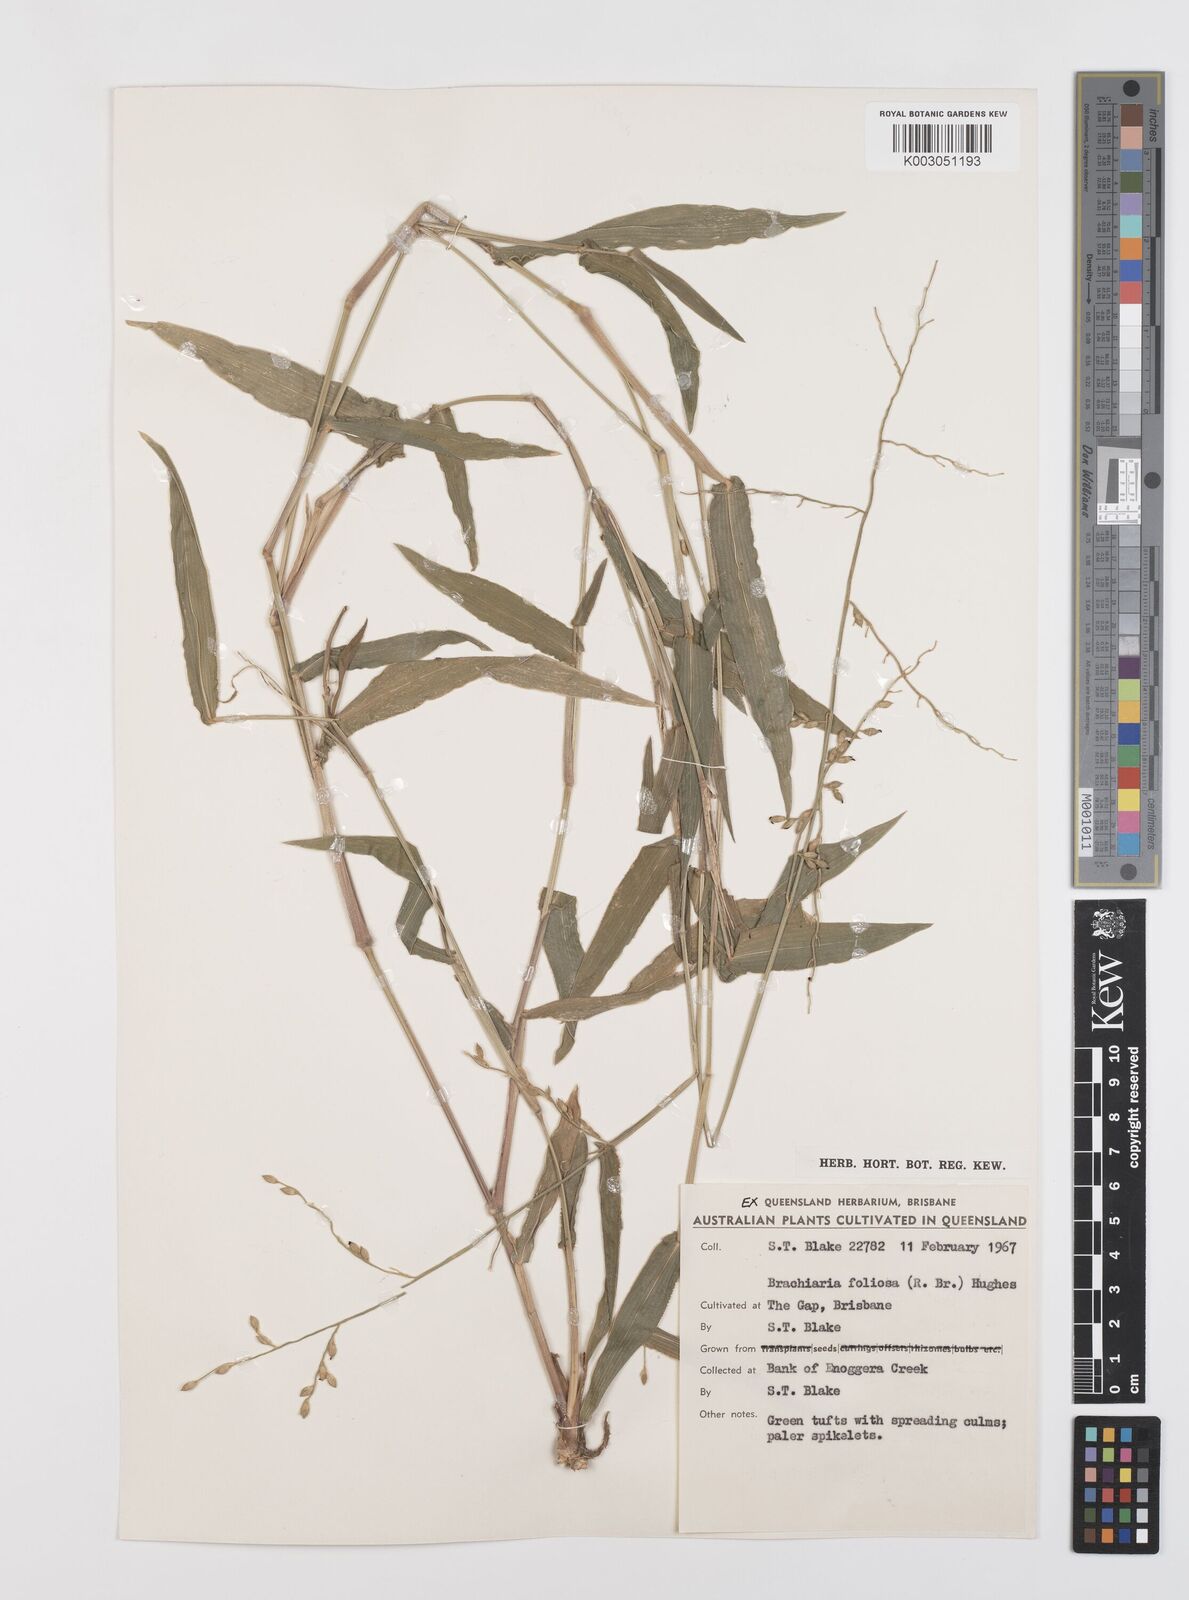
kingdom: Plantae
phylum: Tracheophyta
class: Liliopsida
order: Poales
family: Poaceae
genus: Urochloa
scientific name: Urochloa foliosa
